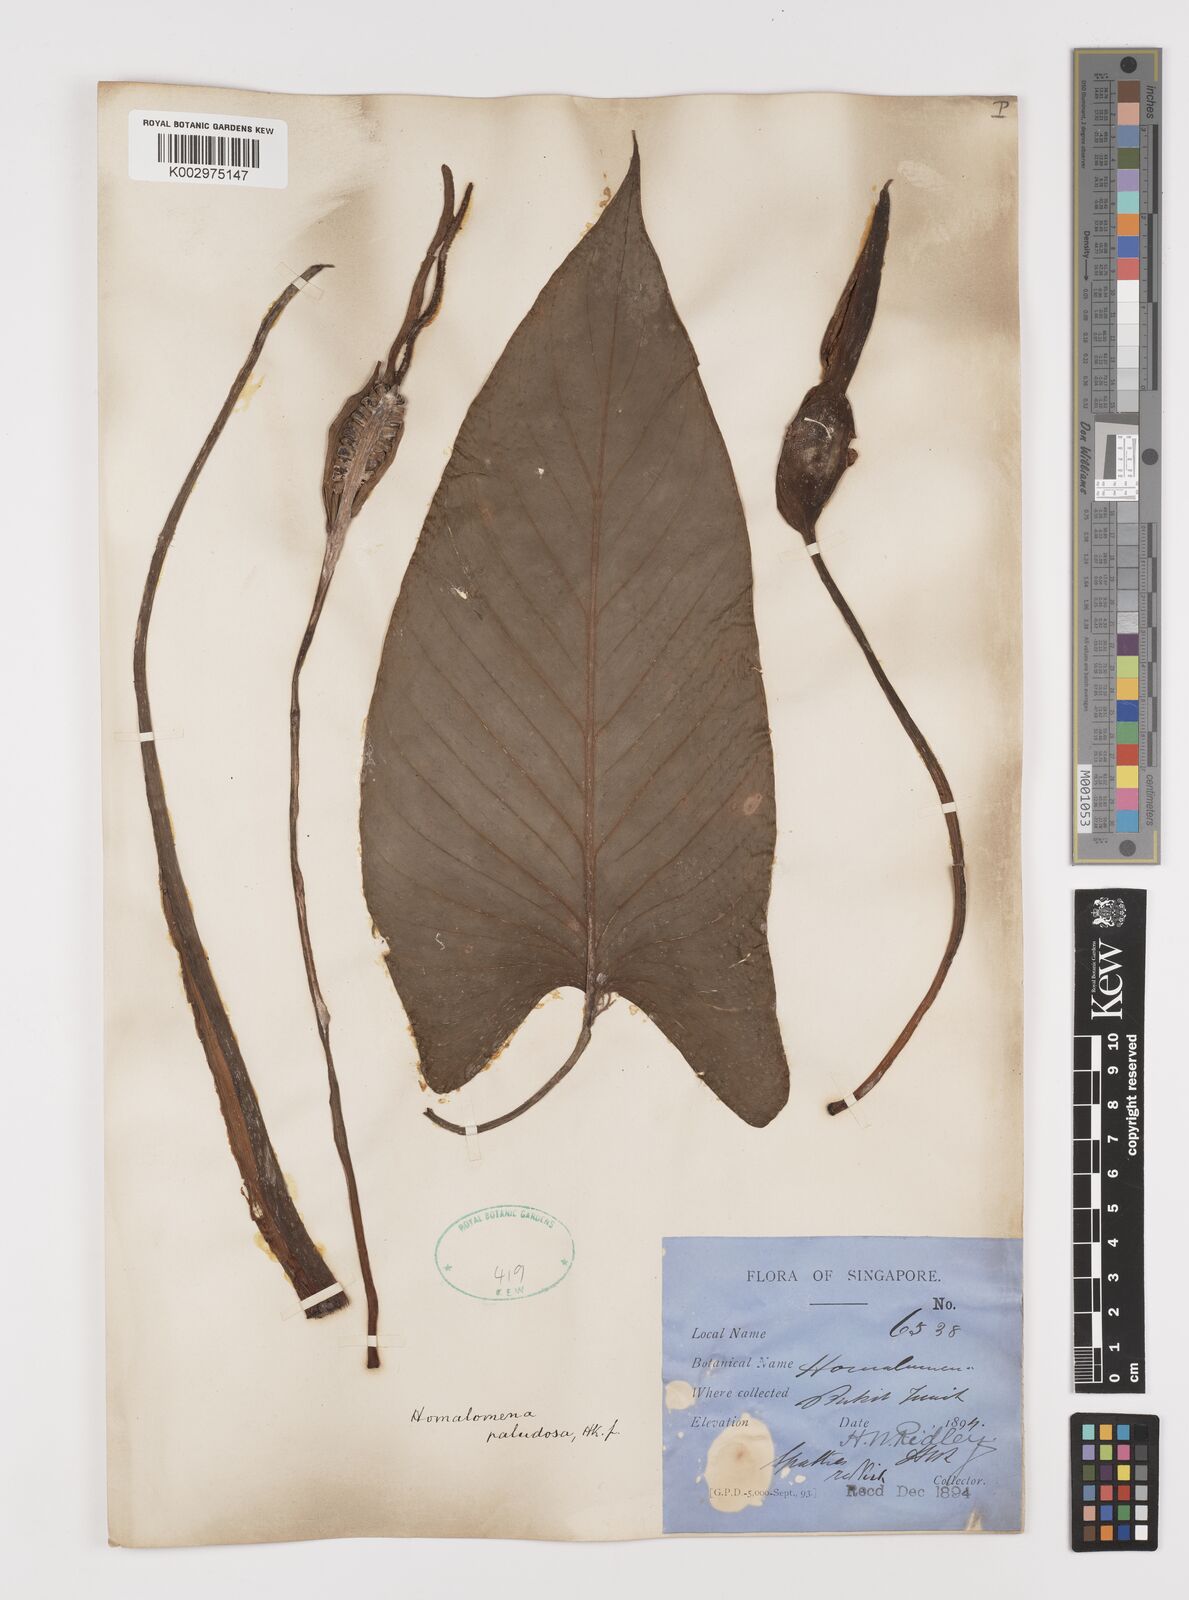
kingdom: Plantae
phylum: Tracheophyta
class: Liliopsida
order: Alismatales
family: Araceae
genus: Homalomena
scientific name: Homalomena rostrata
